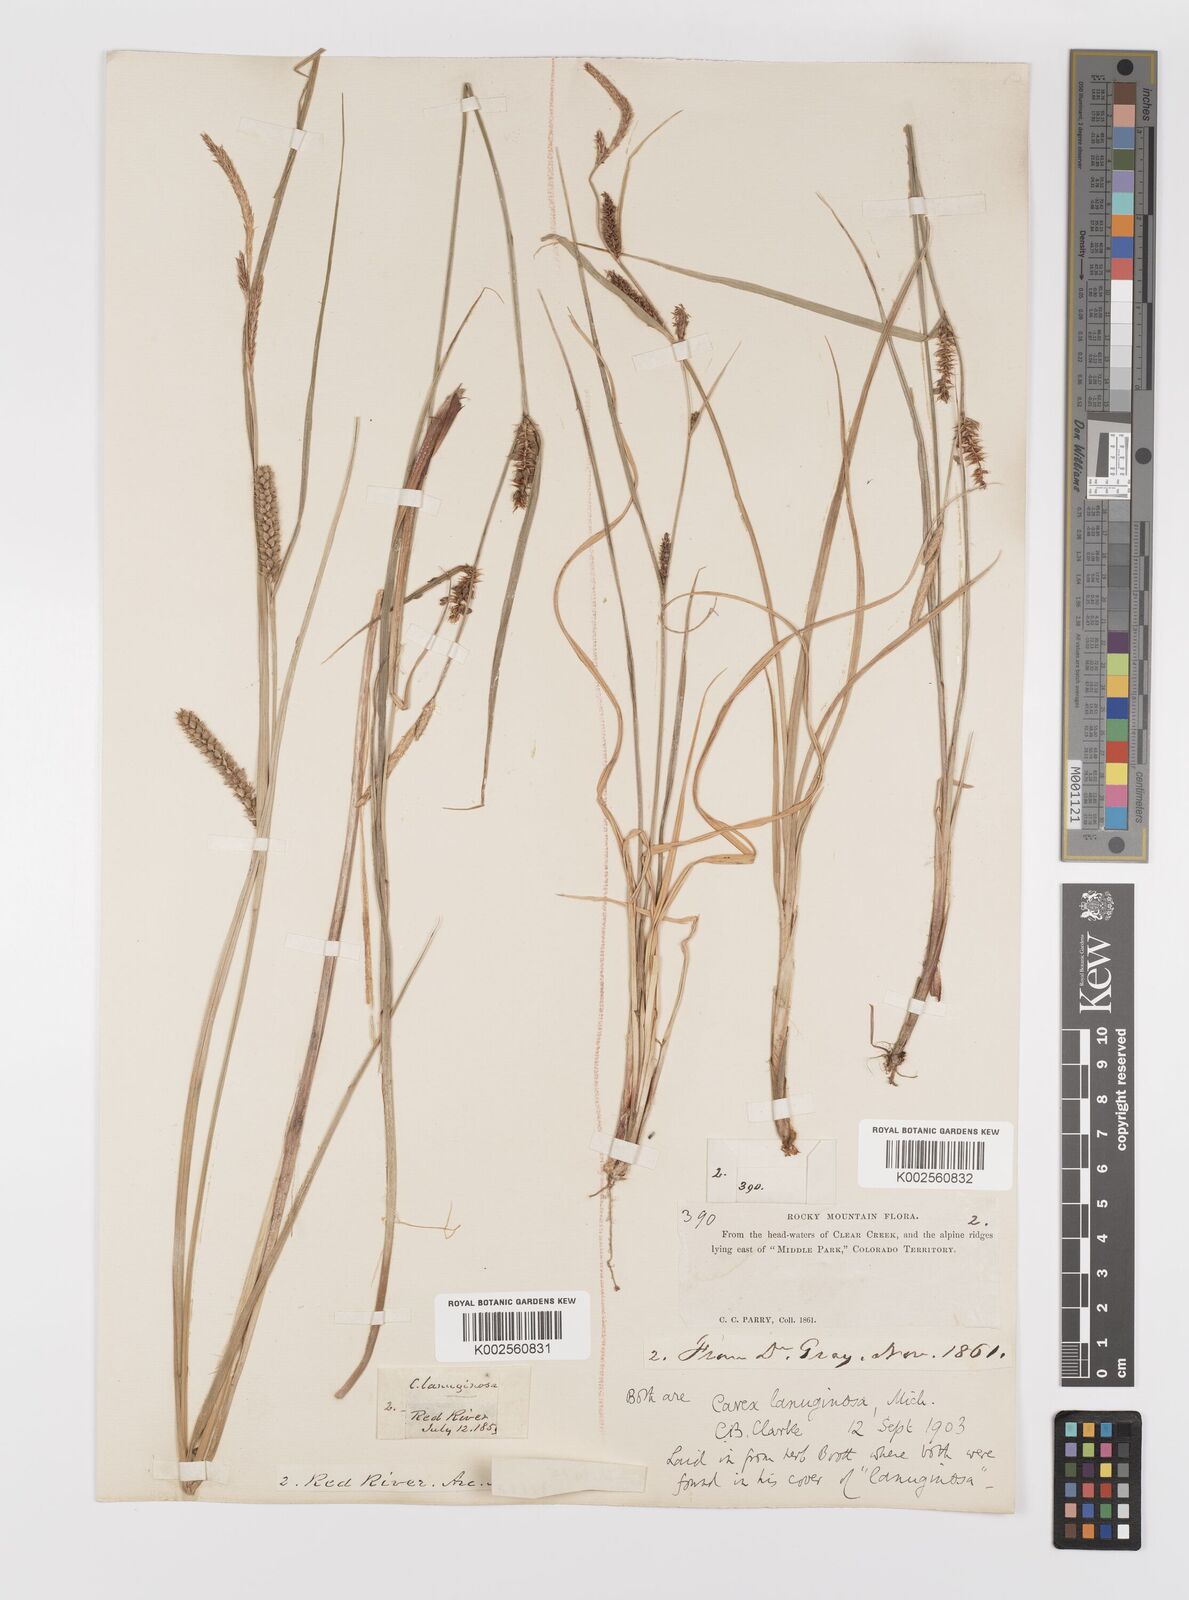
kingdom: Plantae
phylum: Tracheophyta
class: Liliopsida
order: Poales
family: Cyperaceae
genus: Carex
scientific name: Carex lasiocarpa
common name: Slender sedge
